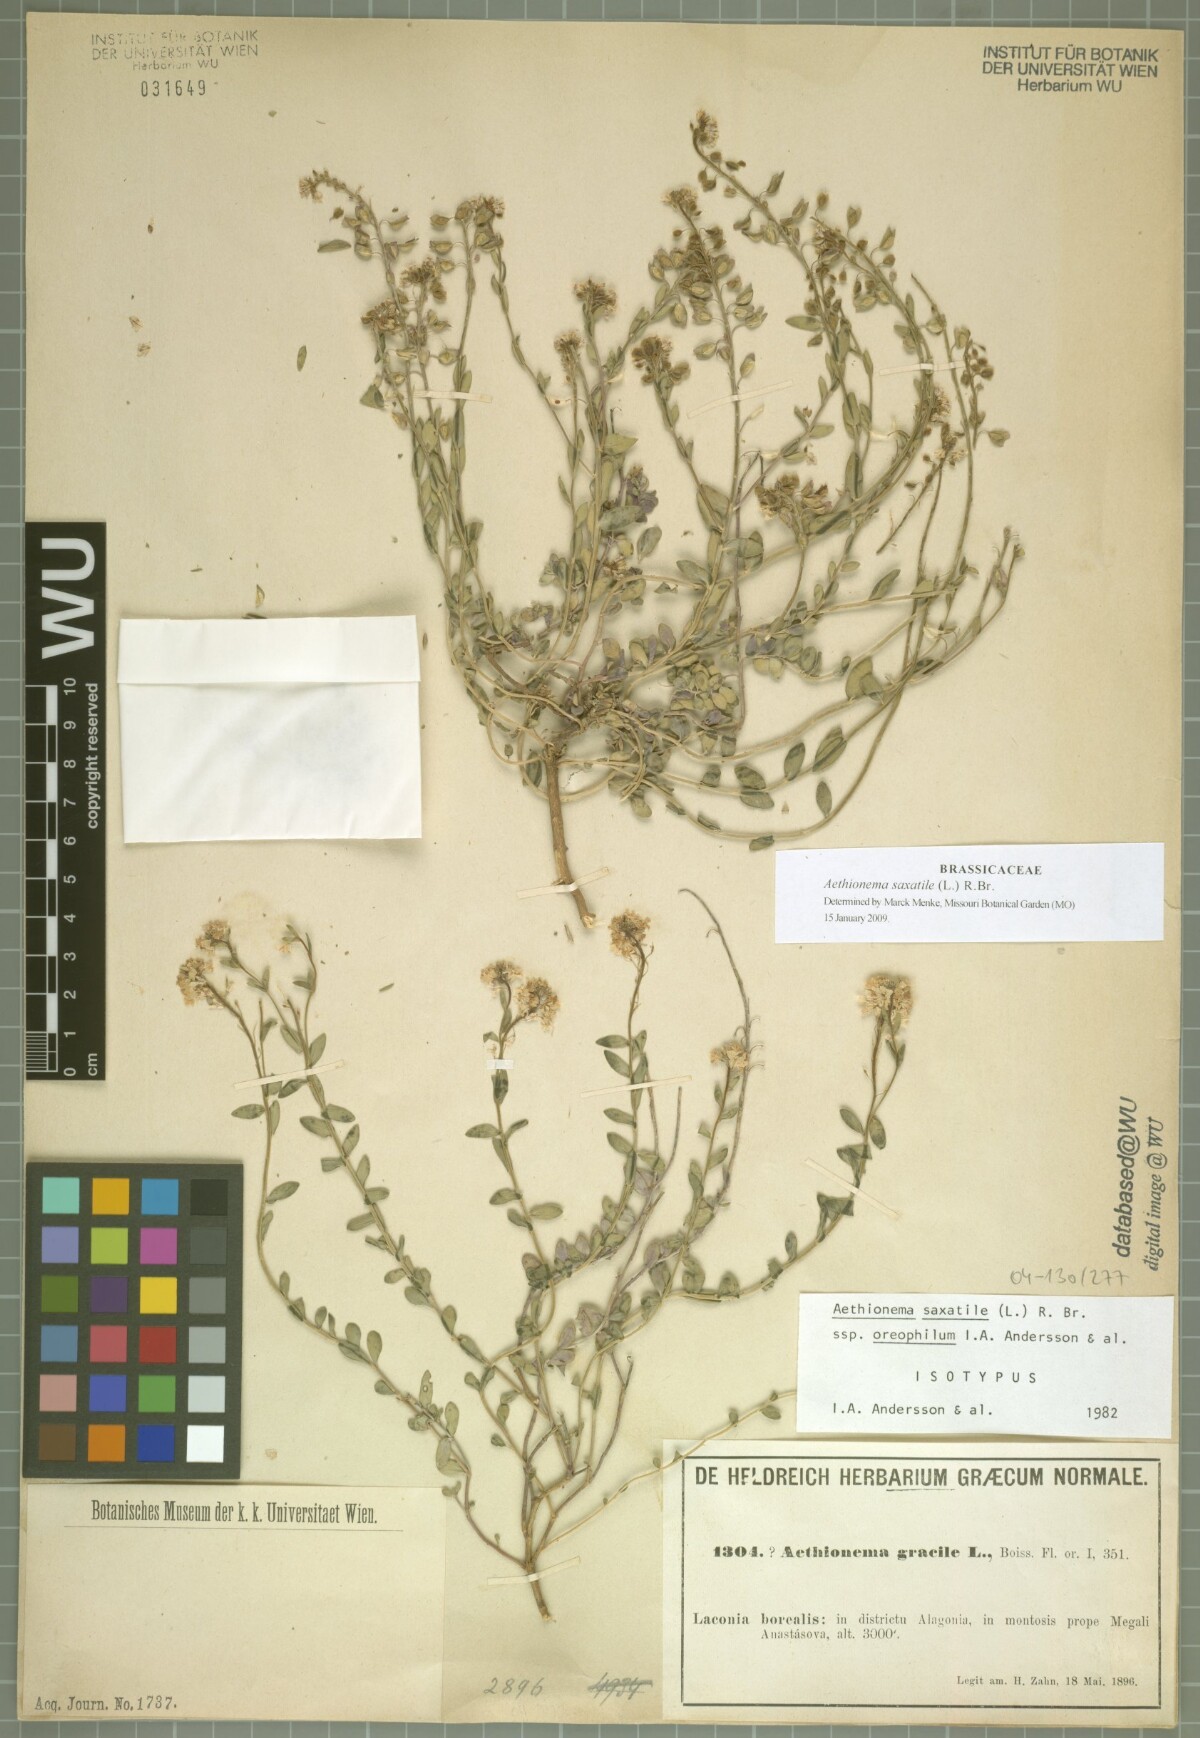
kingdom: Plantae
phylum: Tracheophyta
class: Magnoliopsida
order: Brassicales
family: Brassicaceae
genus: Aethionema
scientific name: Aethionema saxatile
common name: Burnt candytuft
